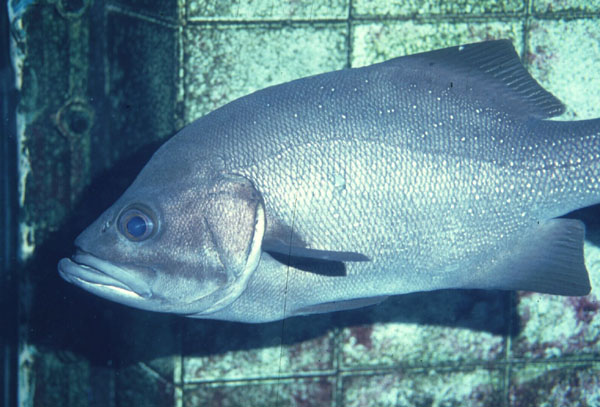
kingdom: Animalia
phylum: Chordata
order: Perciformes
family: Dinopercidae
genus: Dinoperca
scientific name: Dinoperca petersi
